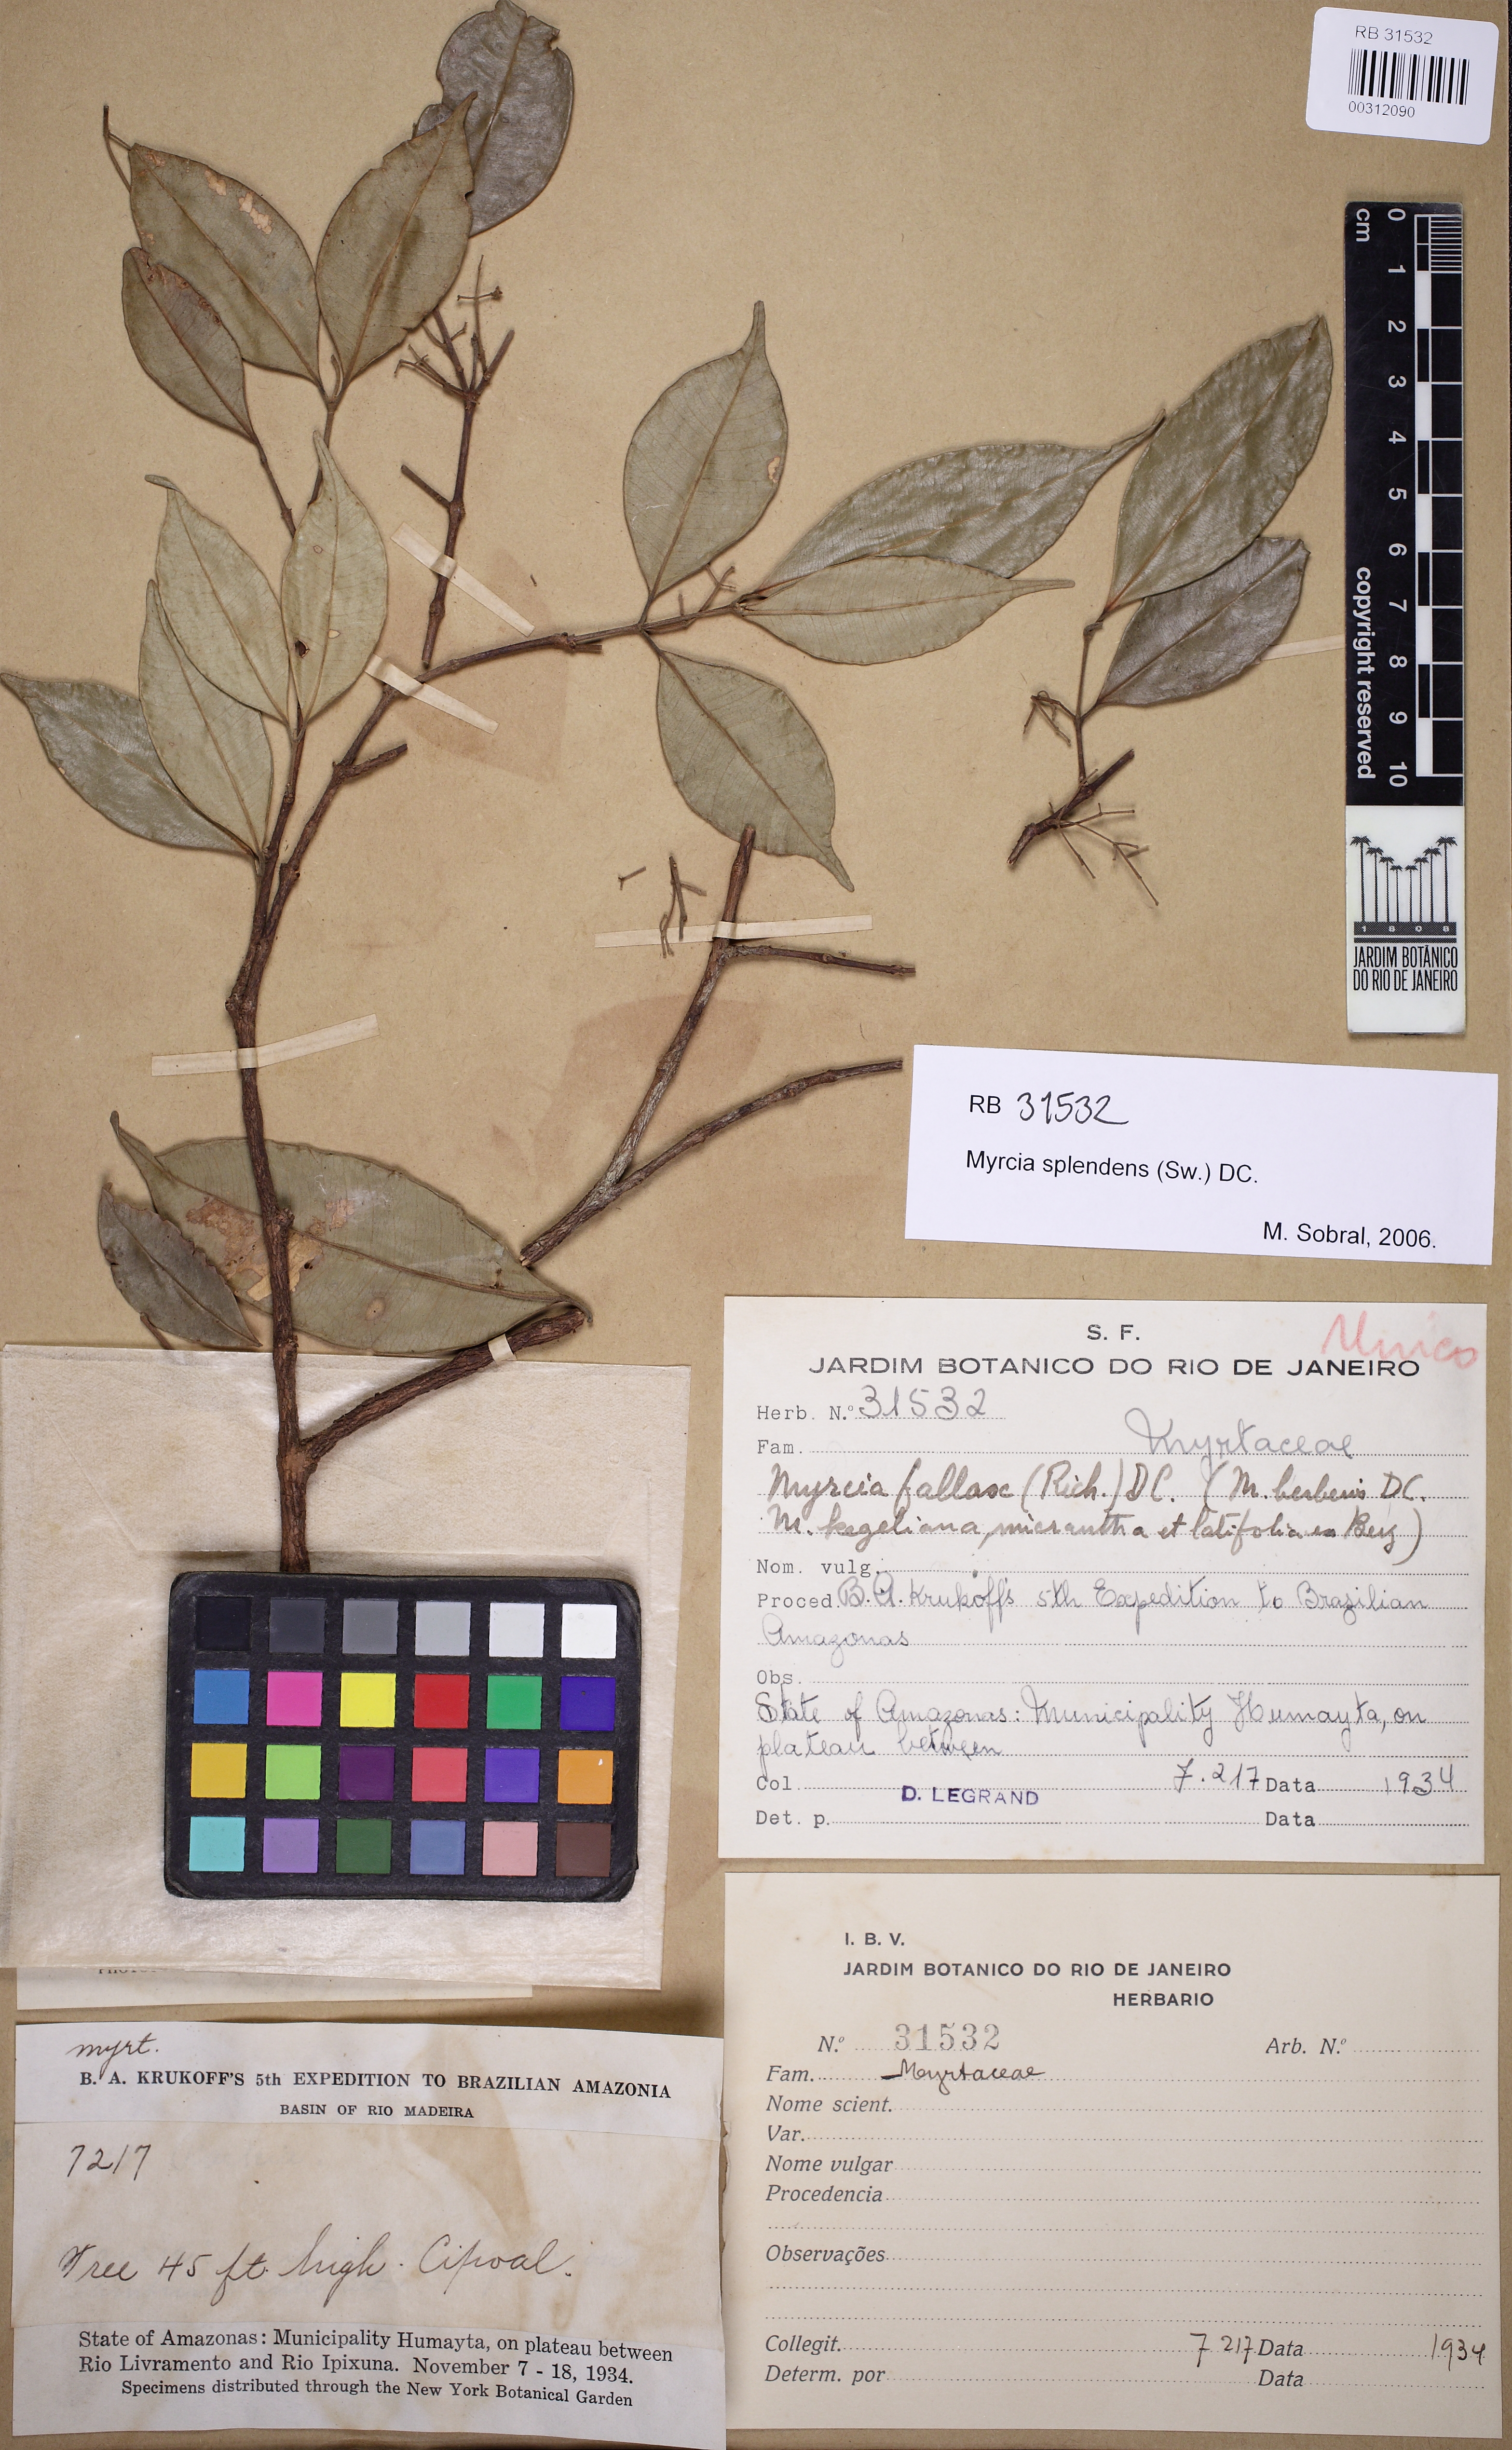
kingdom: Plantae
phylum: Tracheophyta
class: Magnoliopsida
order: Myrtales
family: Myrtaceae
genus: Myrcia
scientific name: Myrcia splendens
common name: Surinam cherry
